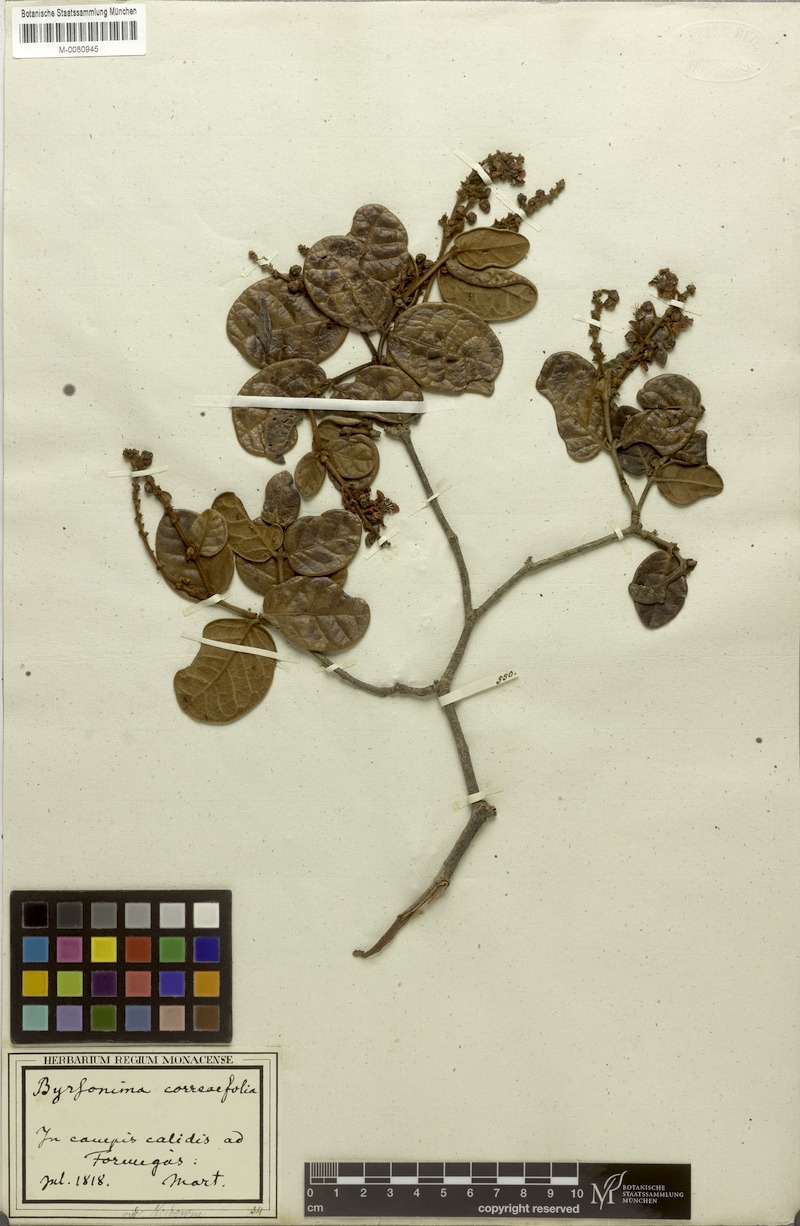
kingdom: Plantae
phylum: Tracheophyta
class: Magnoliopsida
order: Malpighiales
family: Malpighiaceae
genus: Byrsonima
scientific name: Byrsonima correifolia
